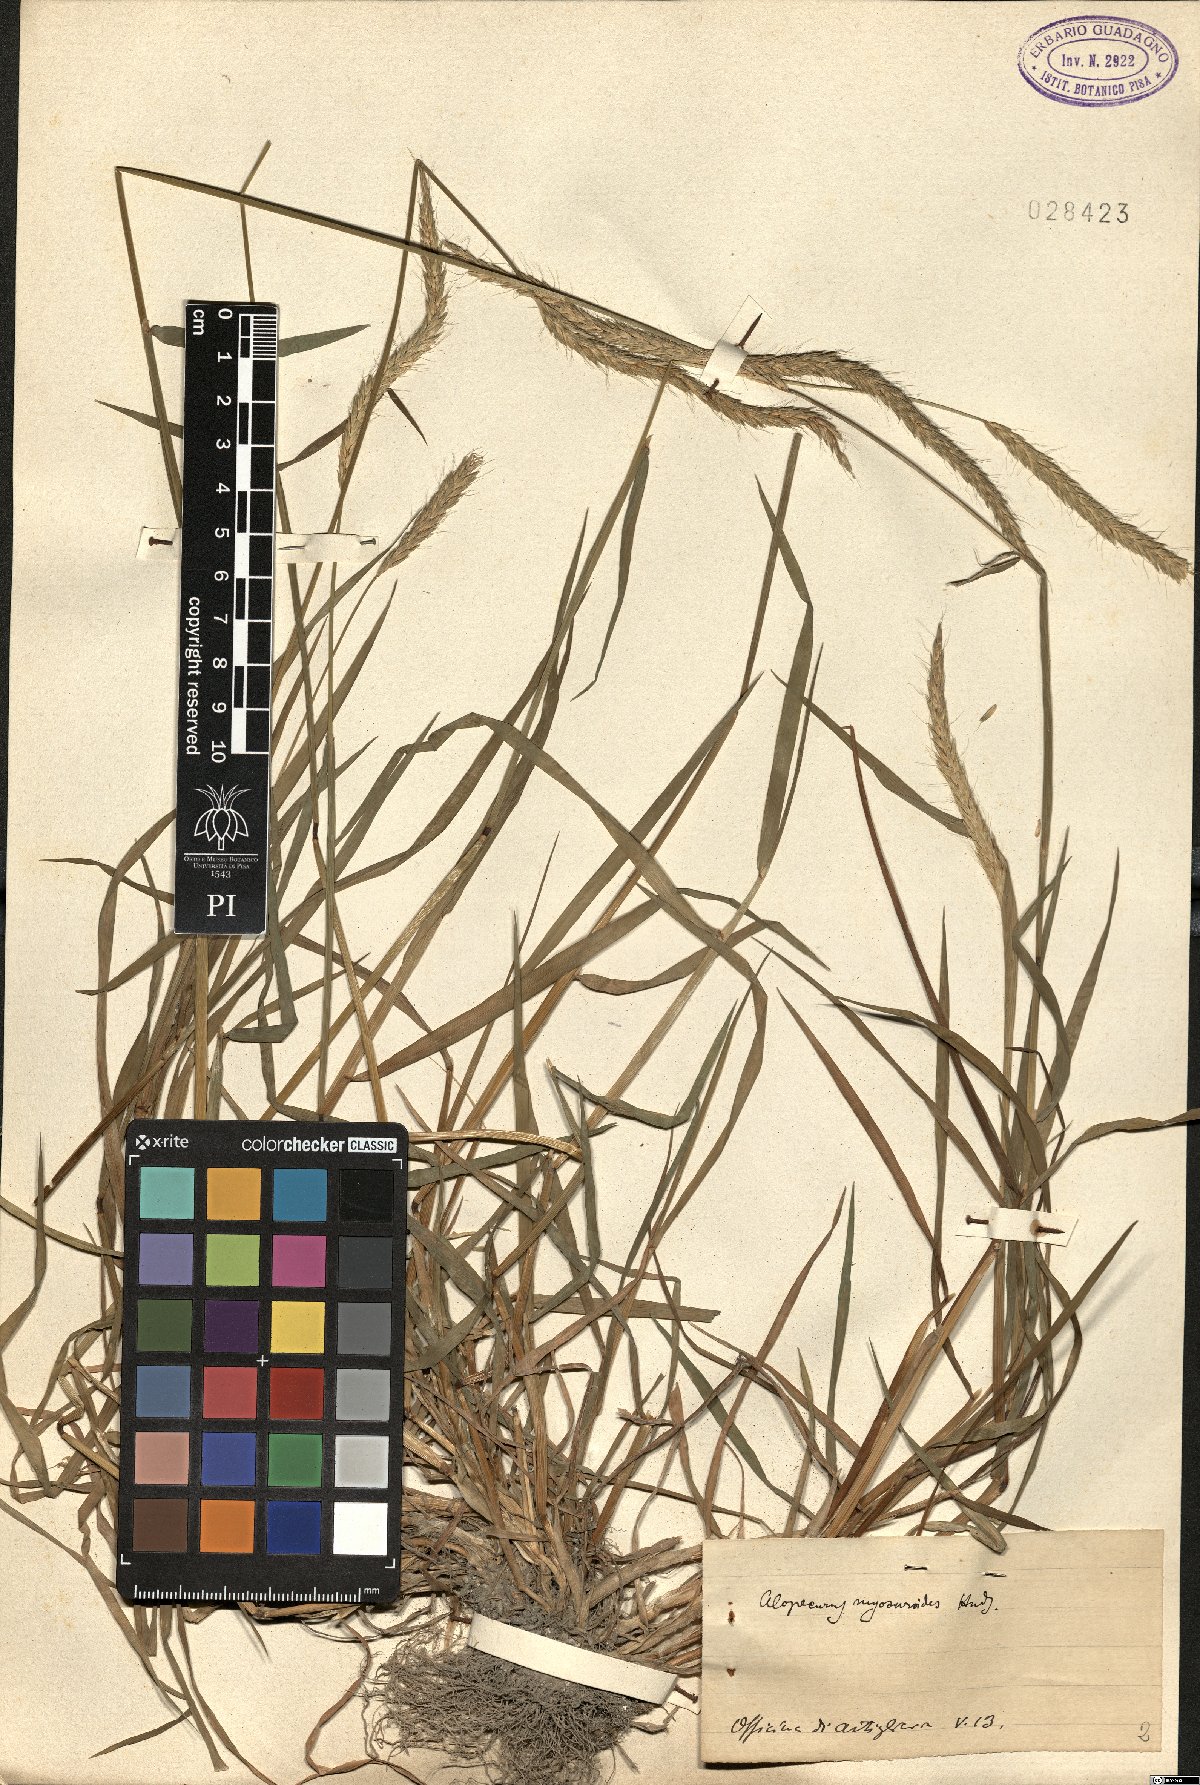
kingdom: Plantae
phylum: Tracheophyta
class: Liliopsida
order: Poales
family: Poaceae
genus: Alopecurus
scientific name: Alopecurus myosuroides
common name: Black-grass
